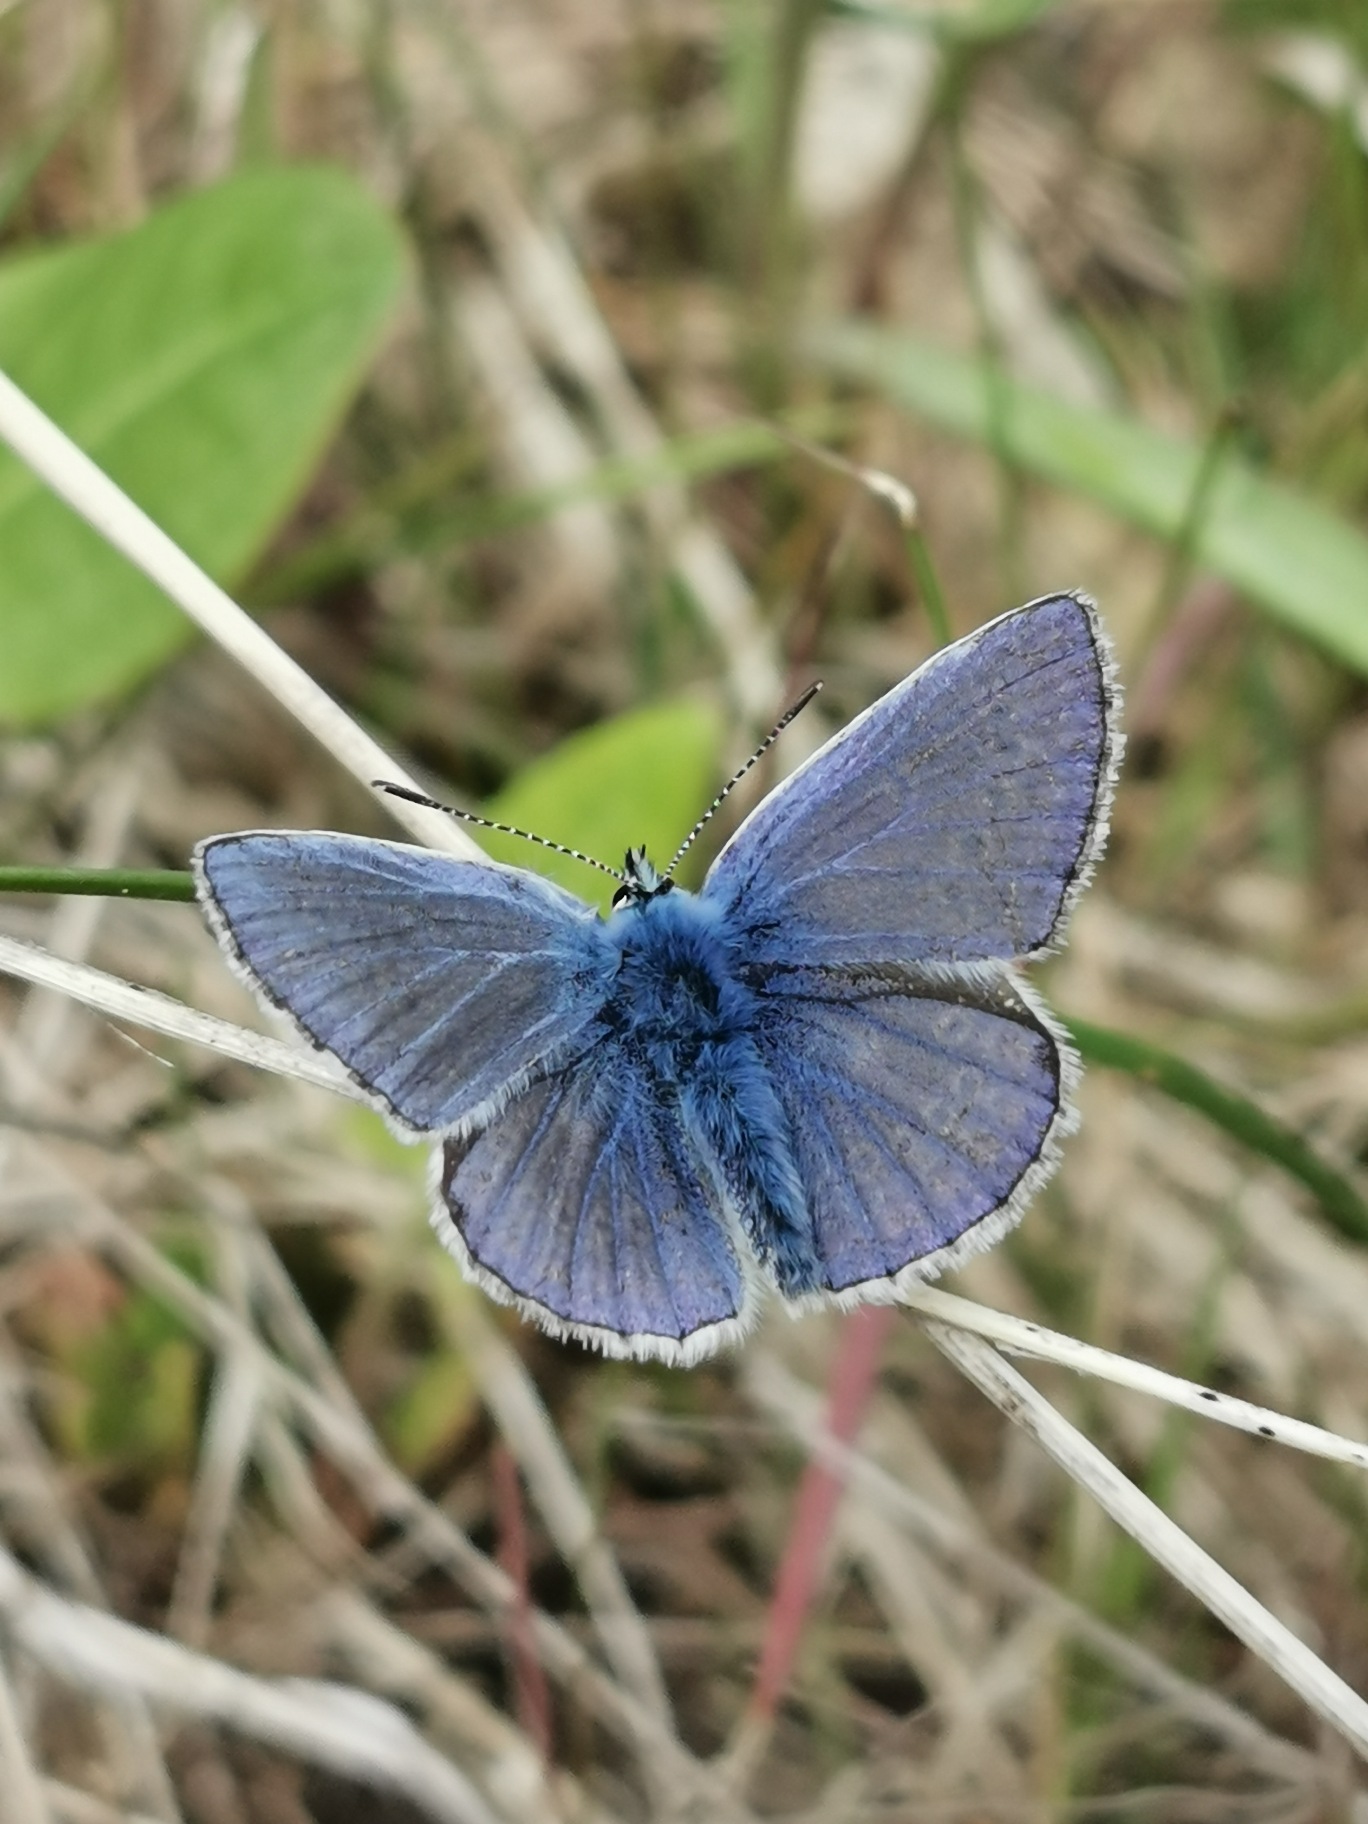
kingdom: Animalia
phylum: Arthropoda
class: Insecta
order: Lepidoptera
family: Lycaenidae
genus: Polyommatus
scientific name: Polyommatus icarus
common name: Almindelig blåfugl
